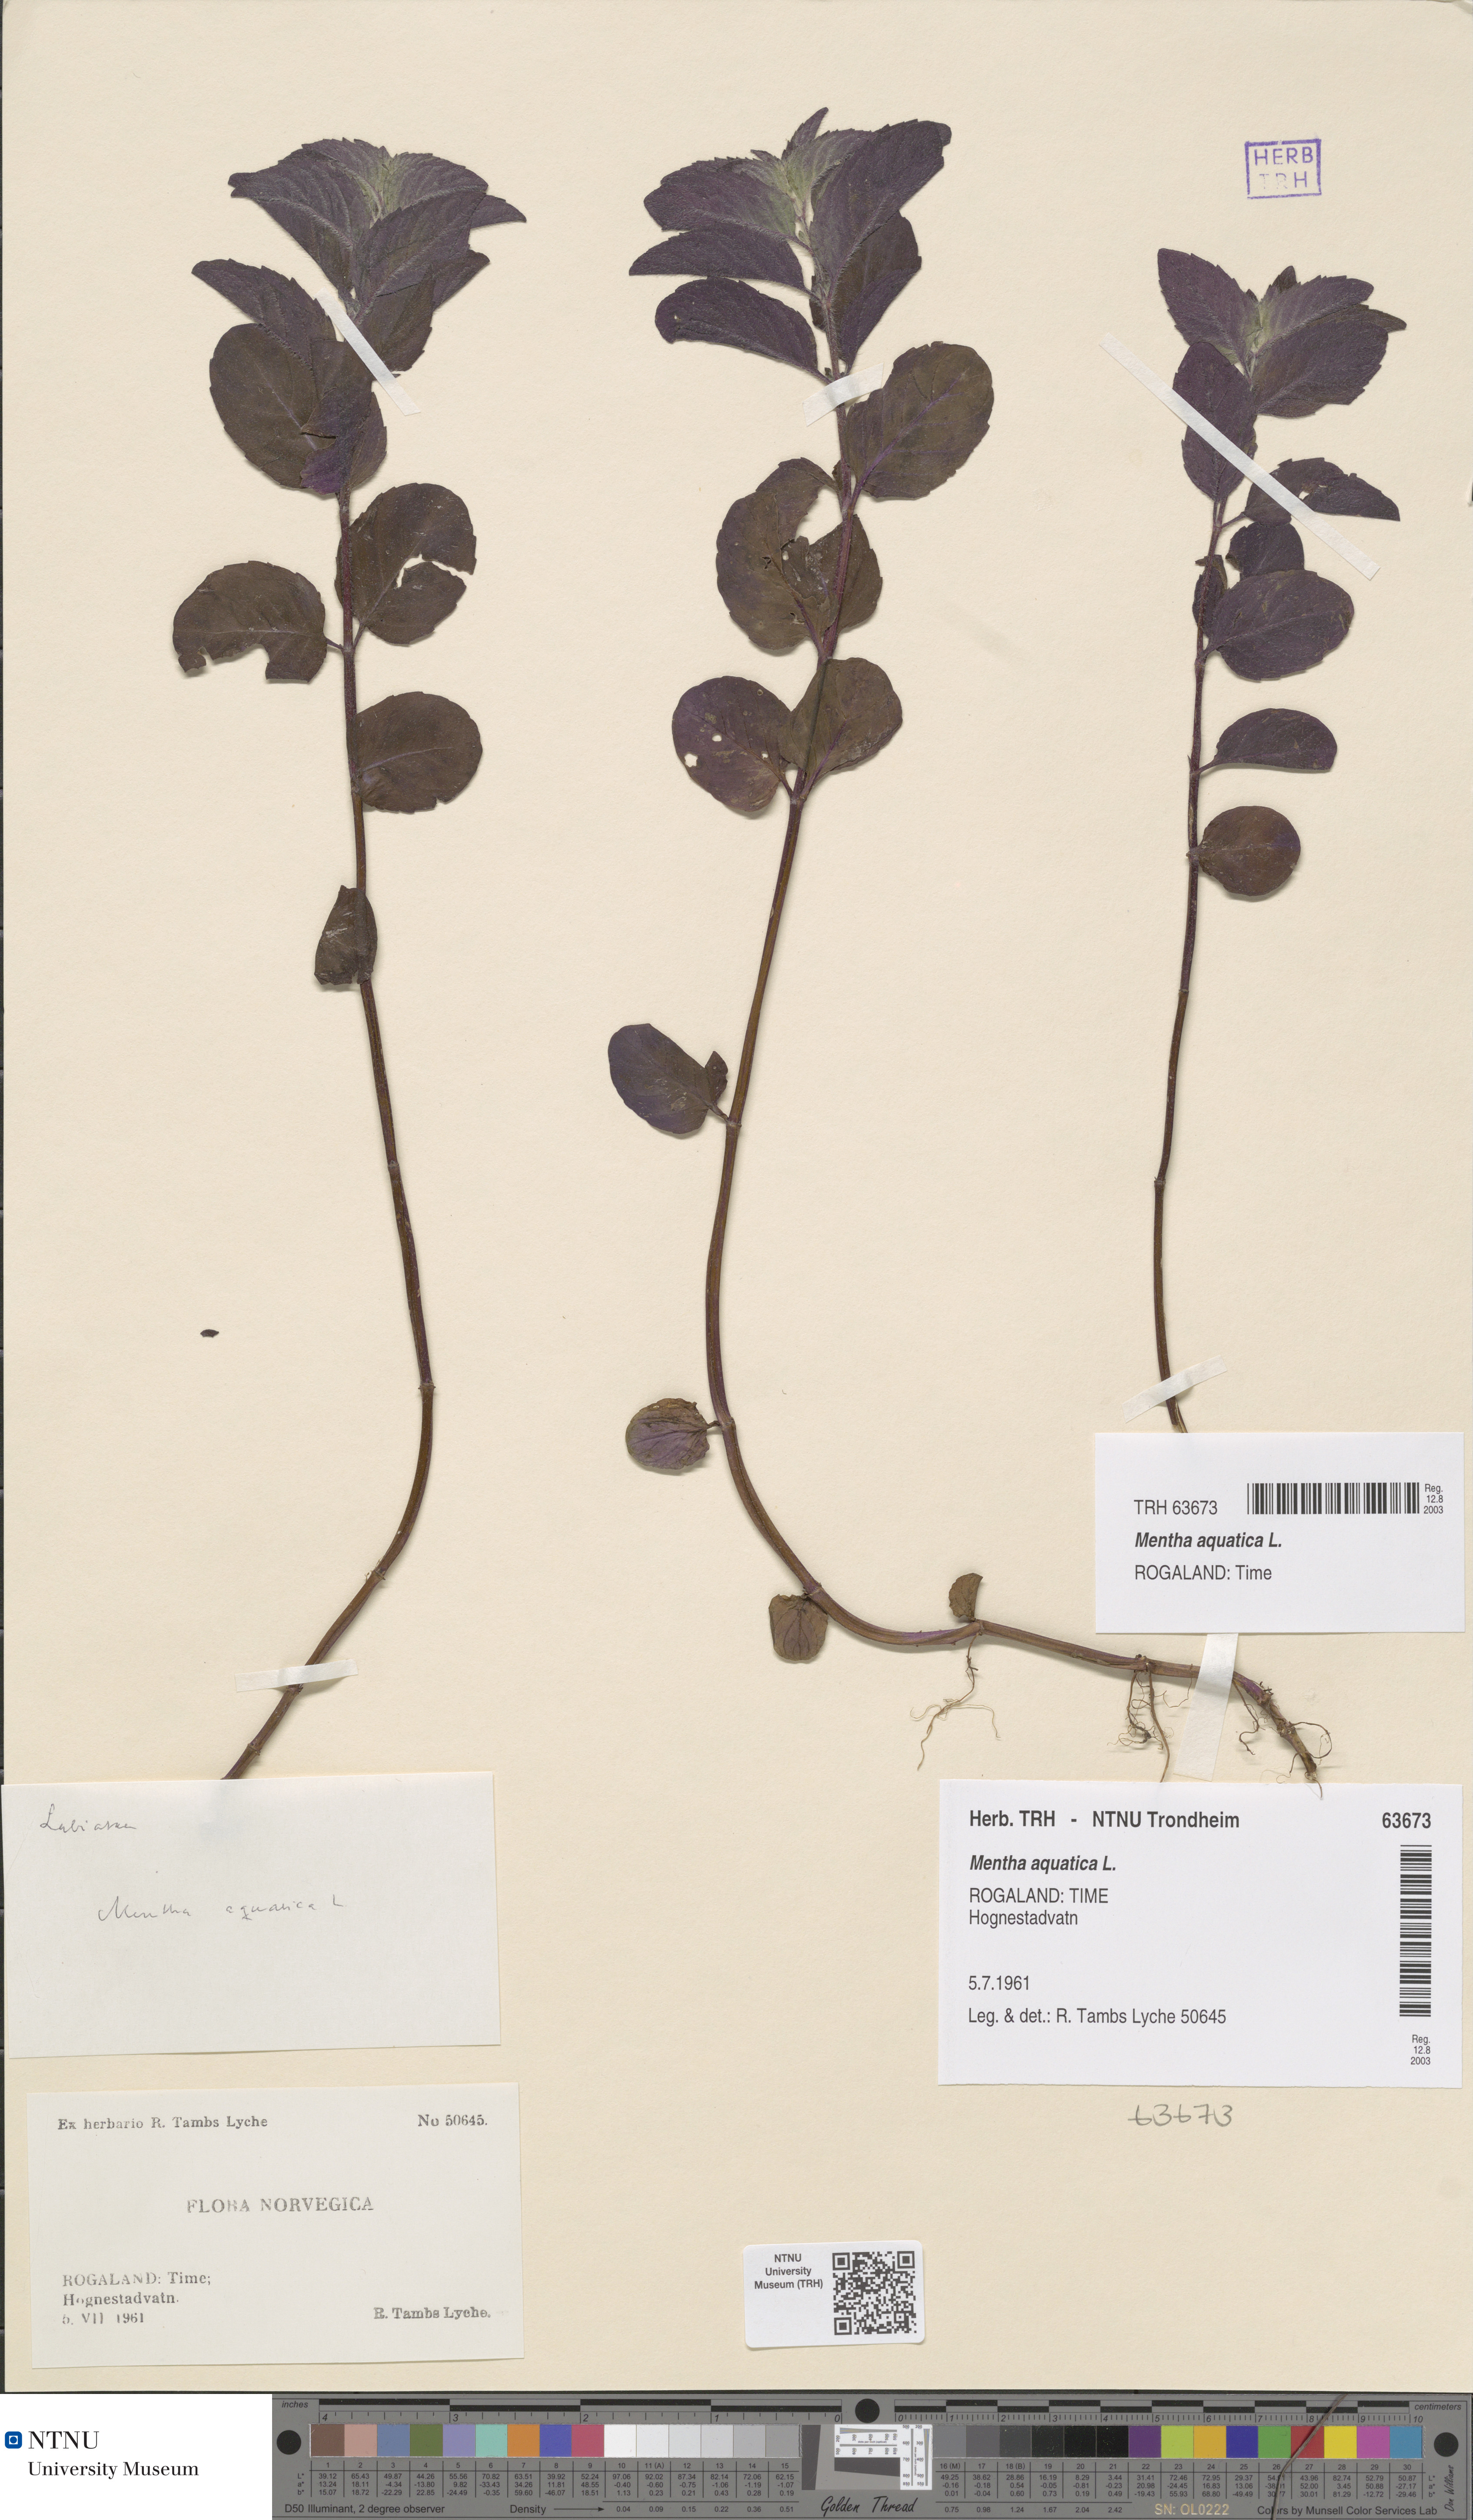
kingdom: Plantae
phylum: Tracheophyta
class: Magnoliopsida
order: Lamiales
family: Lamiaceae
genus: Mentha
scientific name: Mentha aquatica
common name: Water mint
